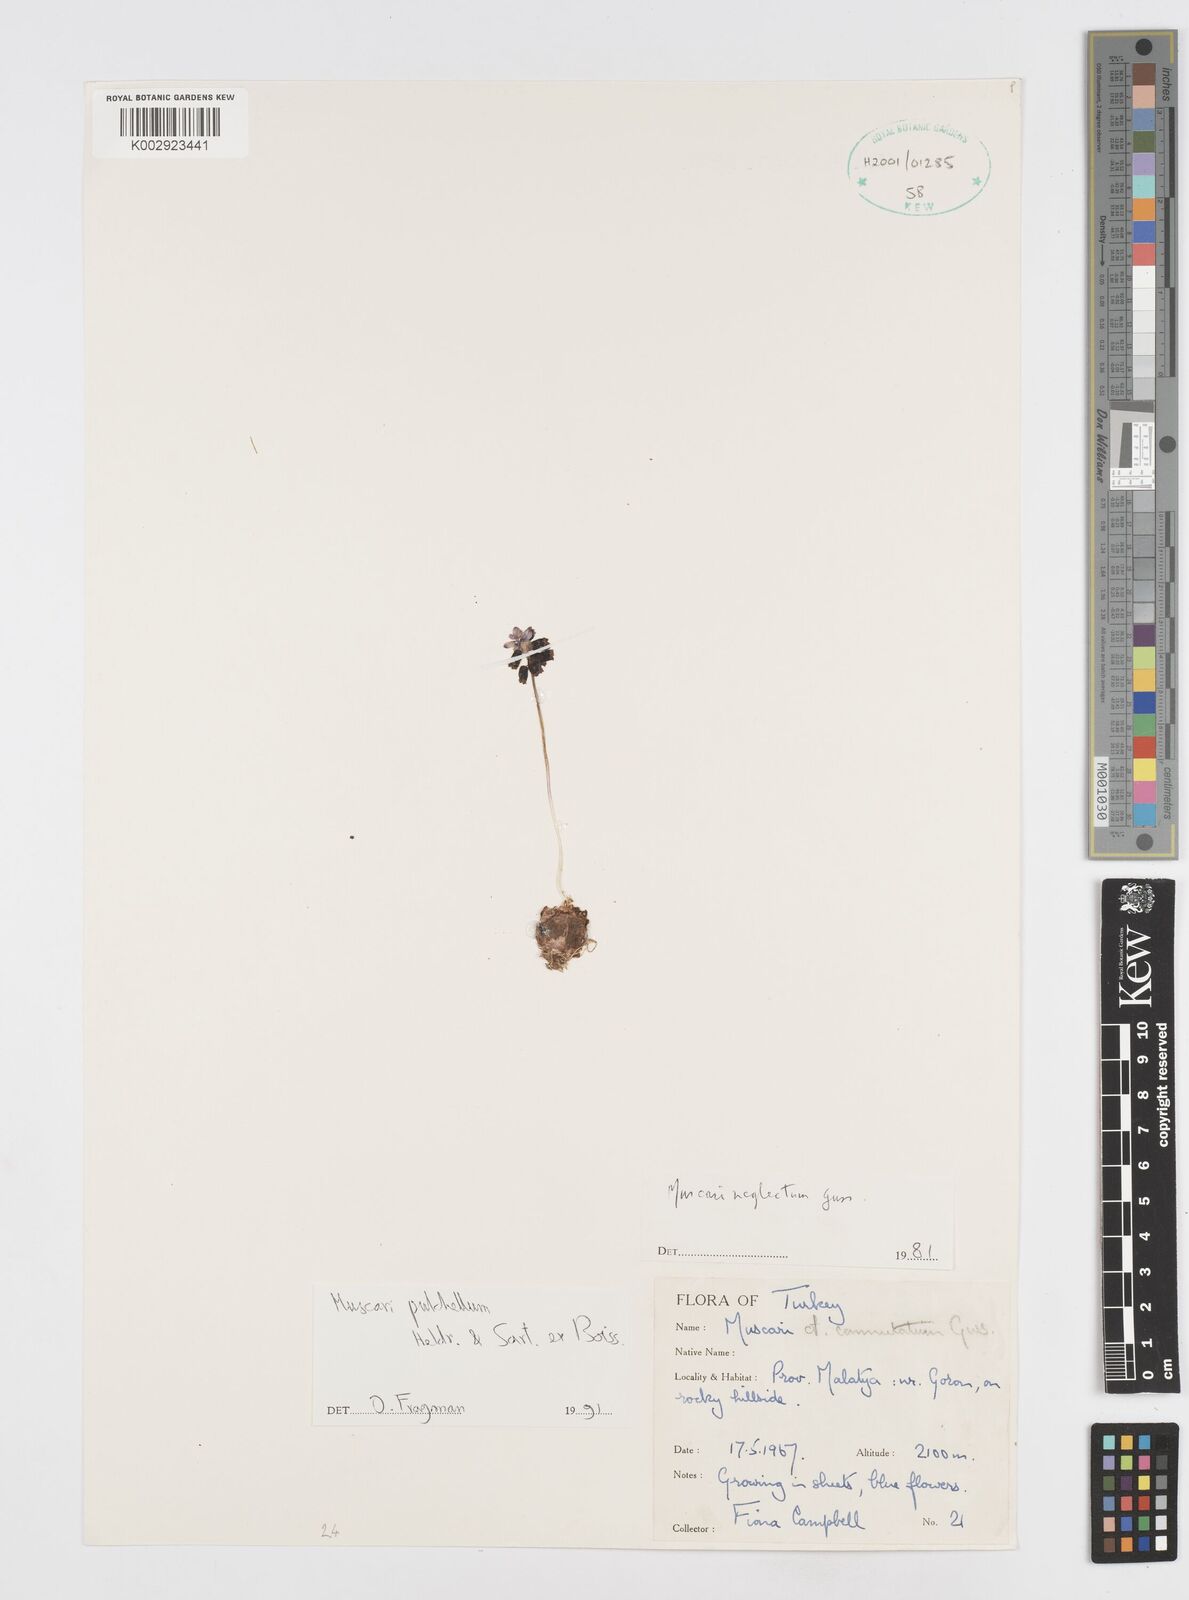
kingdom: Plantae
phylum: Tracheophyta
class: Liliopsida
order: Asparagales
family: Asparagaceae
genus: Muscari
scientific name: Muscari pulchellum
